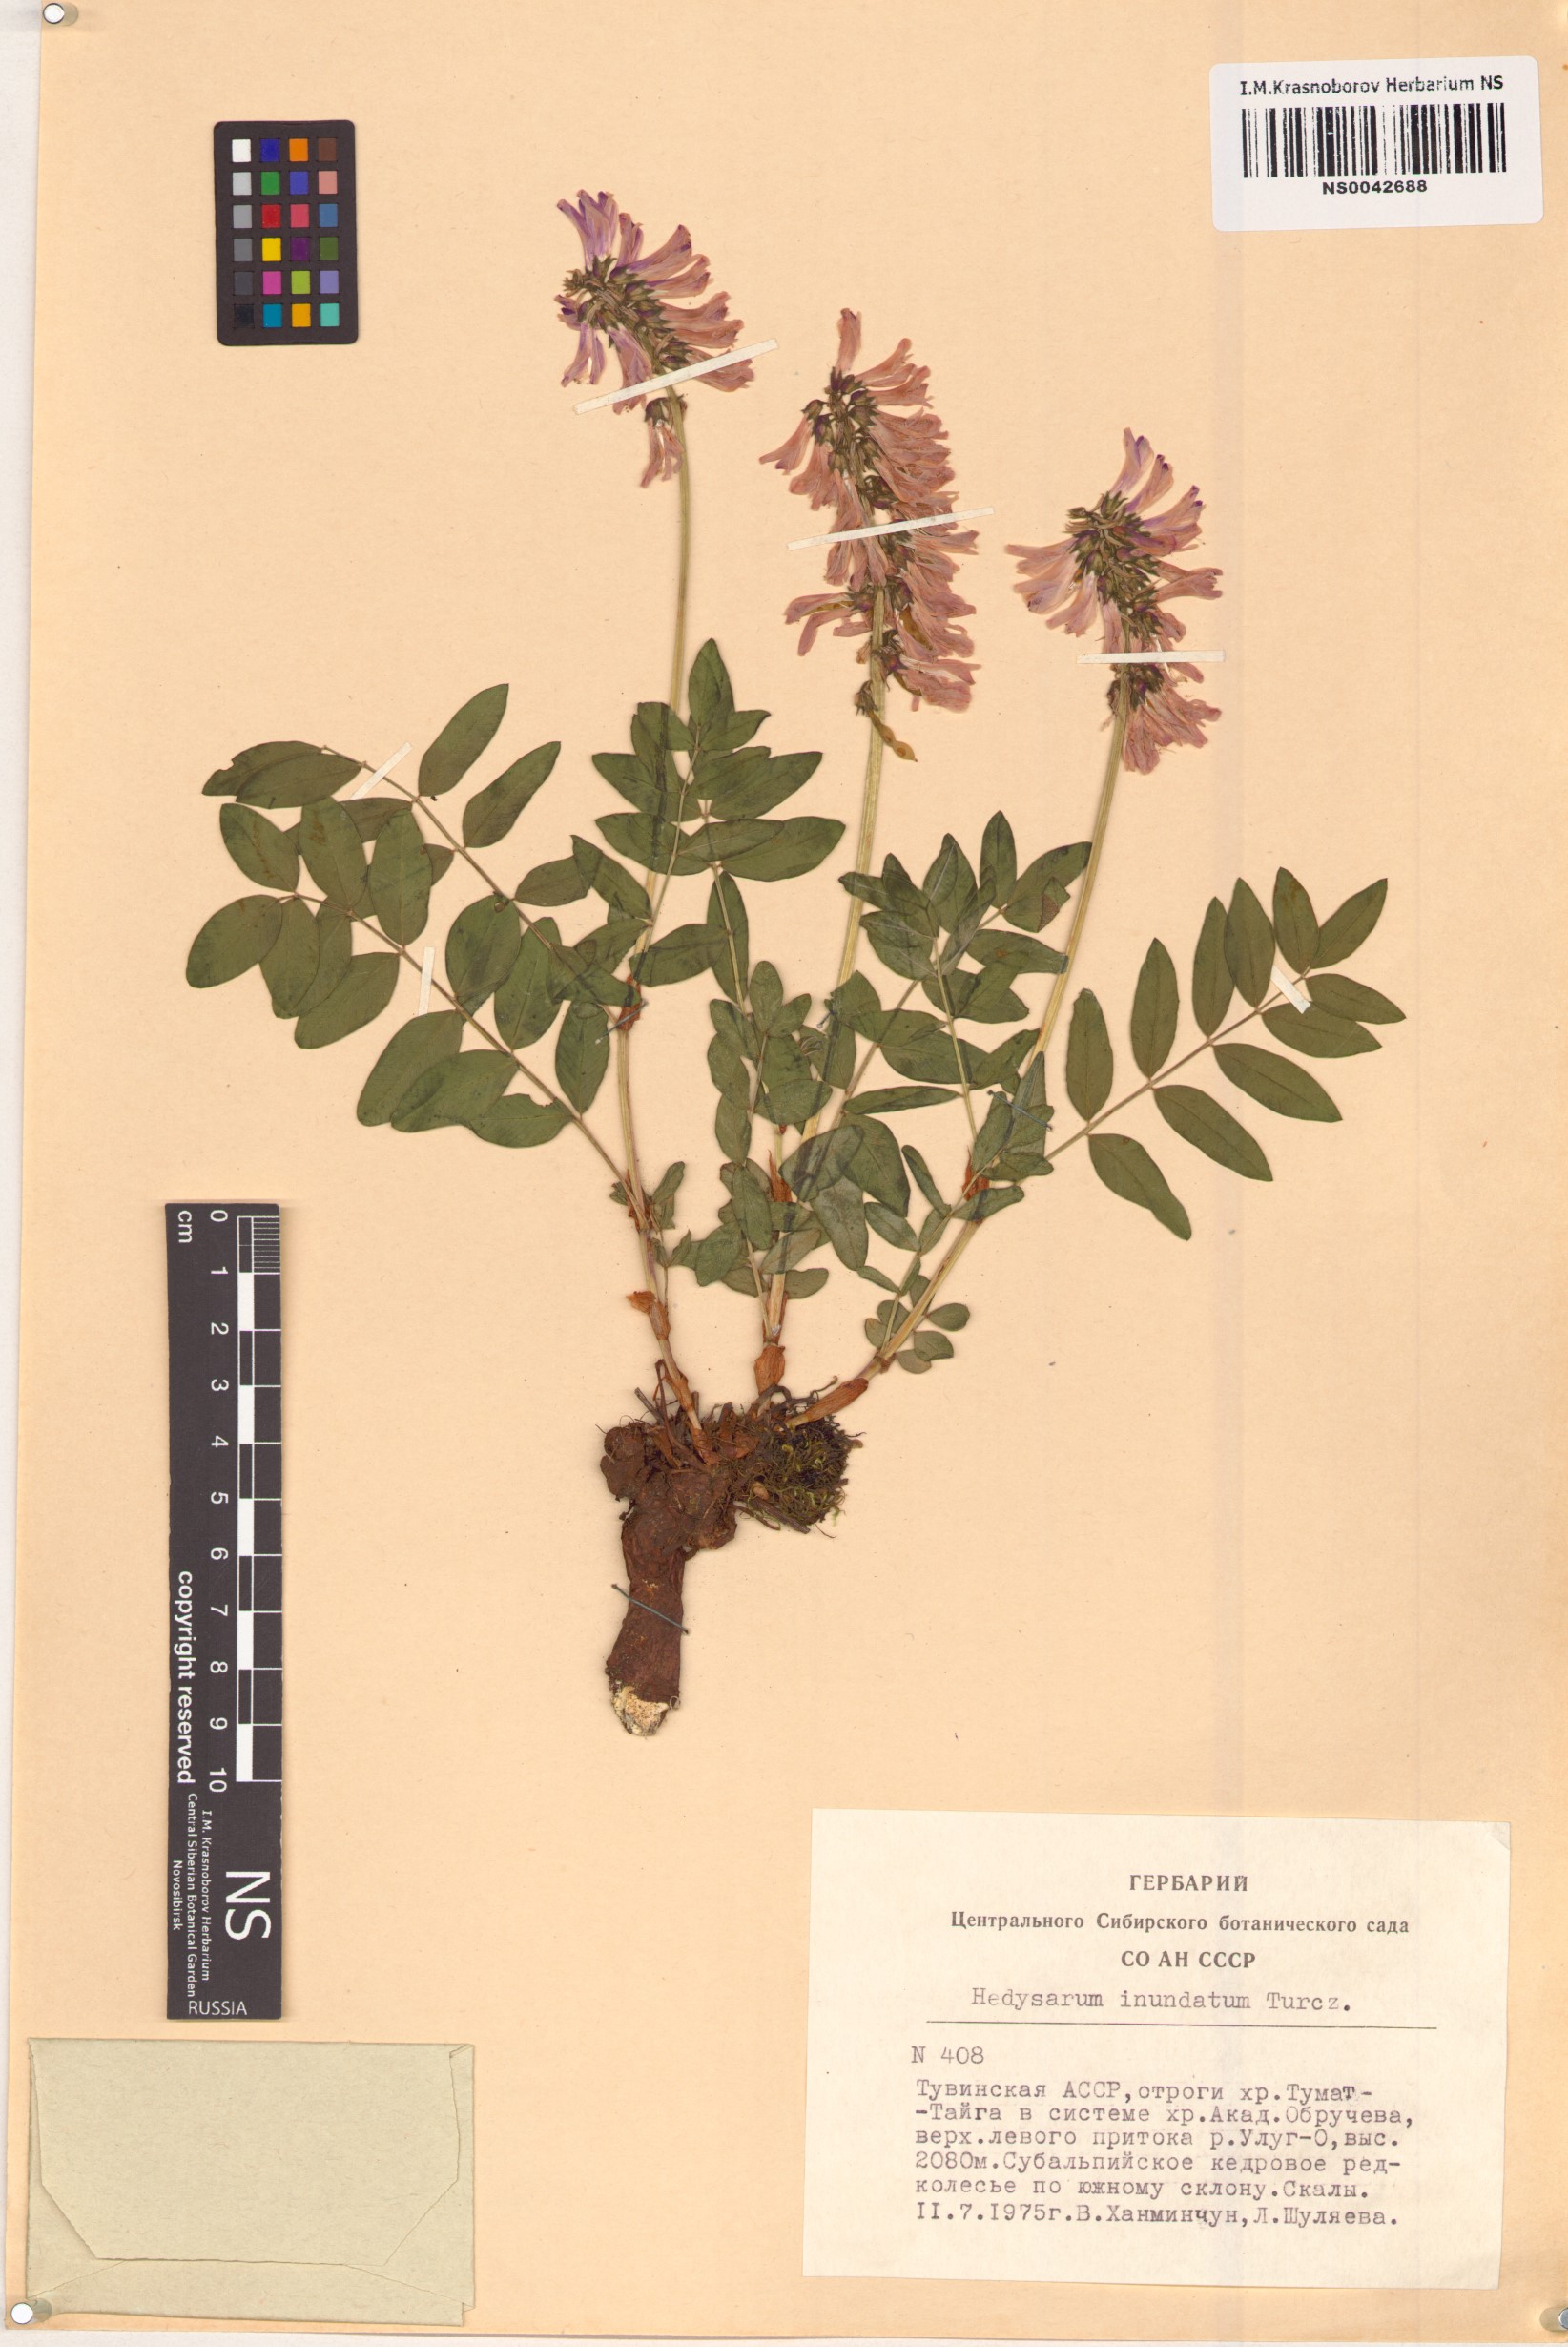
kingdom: Plantae
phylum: Tracheophyta
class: Magnoliopsida
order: Fabales
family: Fabaceae
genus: Hedysarum
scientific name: Hedysarum inundatum
